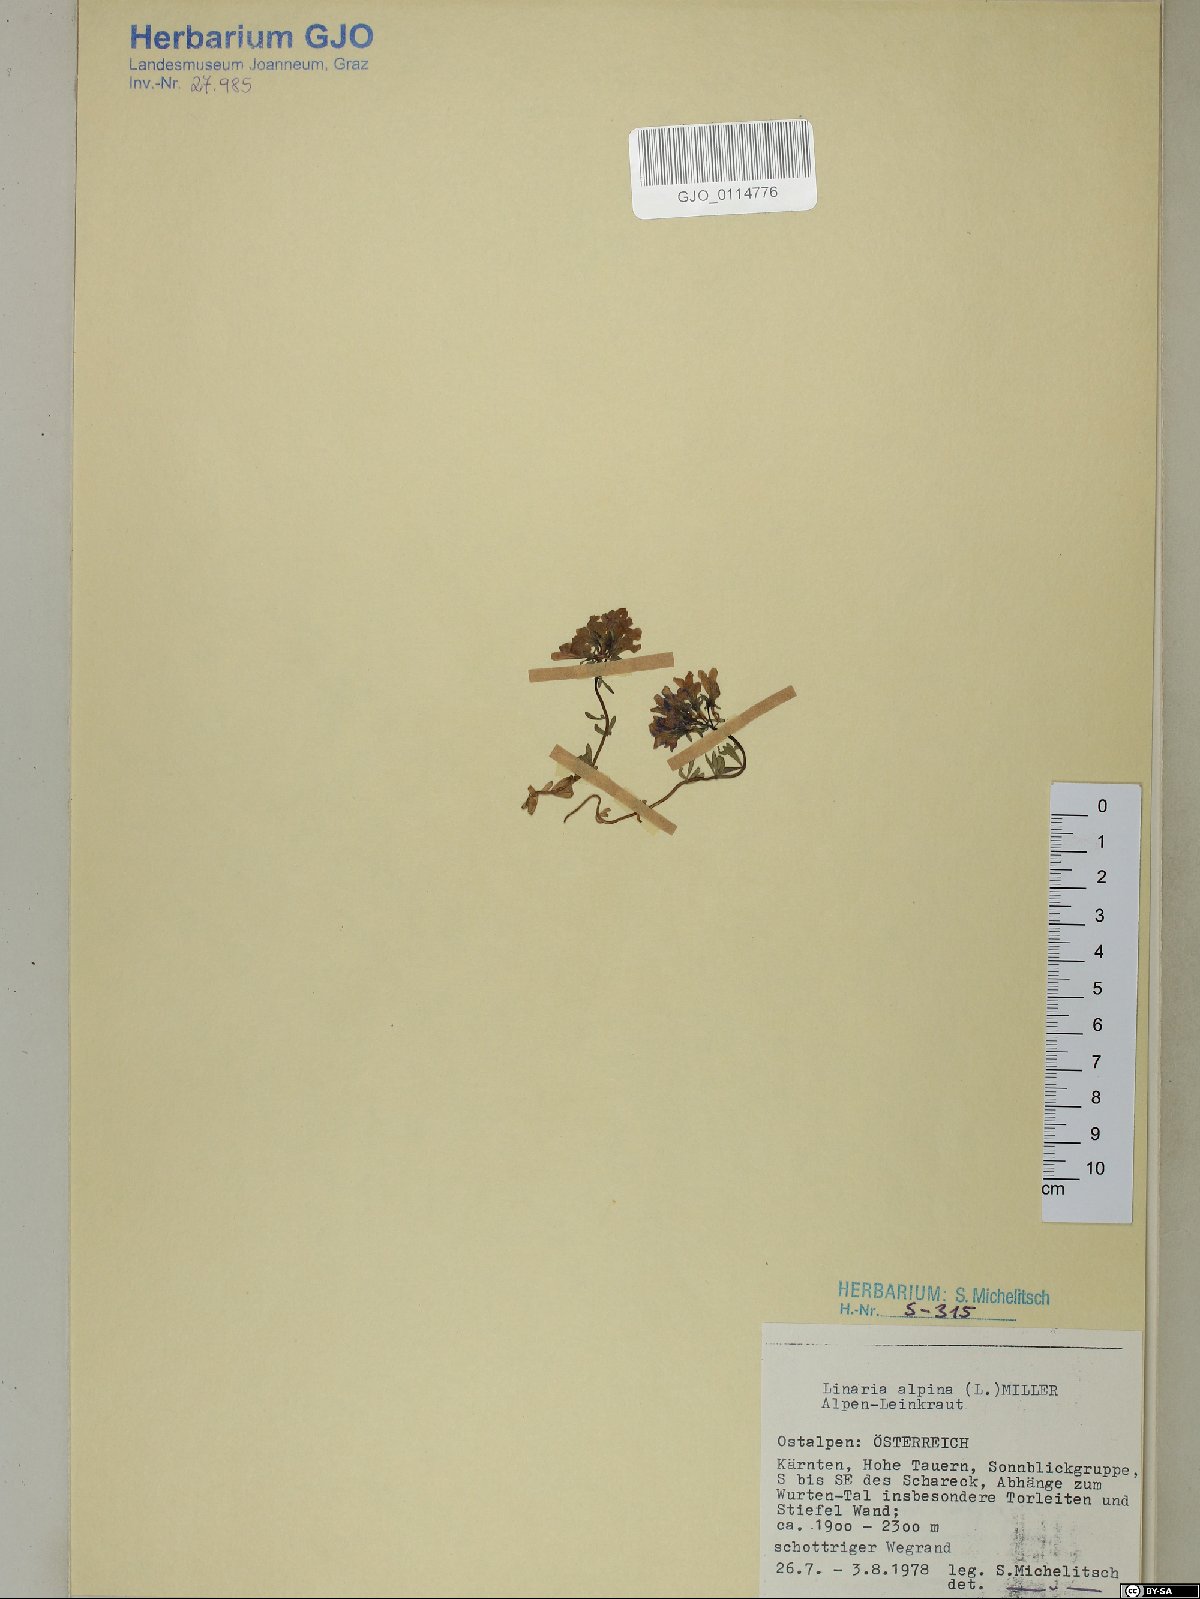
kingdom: Plantae
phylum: Tracheophyta
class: Magnoliopsida
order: Lamiales
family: Plantaginaceae
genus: Linaria
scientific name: Linaria alpina
